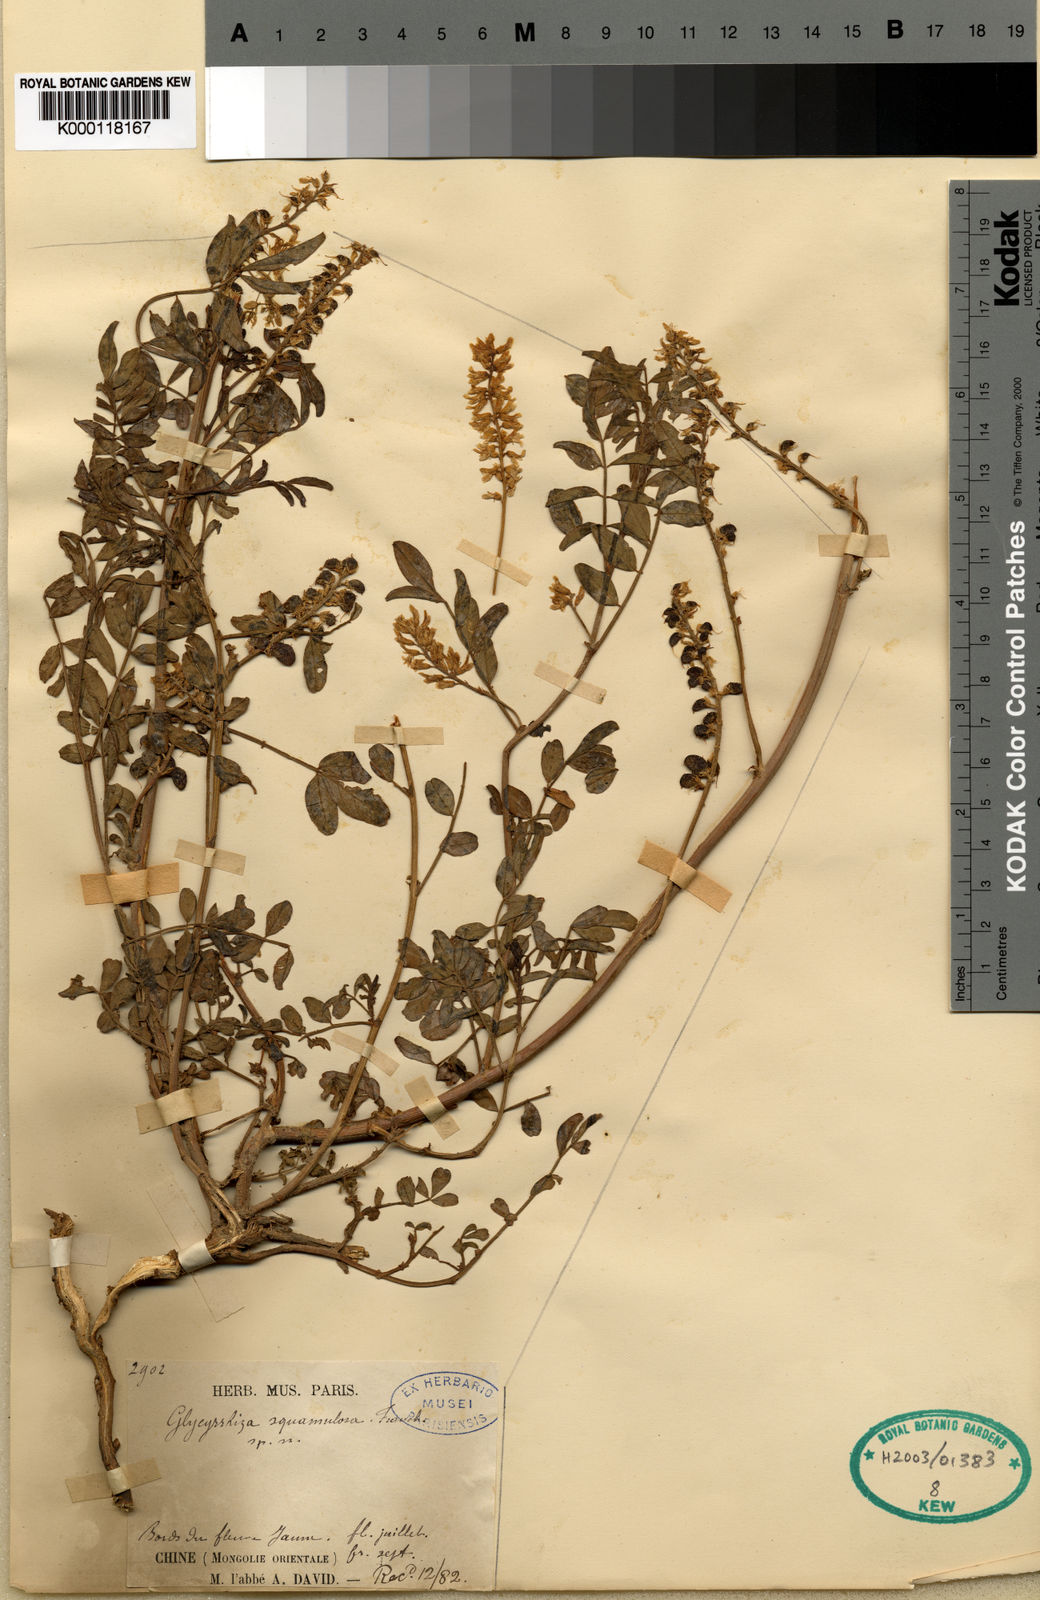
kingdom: Plantae
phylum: Tracheophyta
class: Magnoliopsida
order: Fabales
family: Fabaceae
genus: Glycyrrhiza
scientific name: Glycyrrhiza squamulosa
